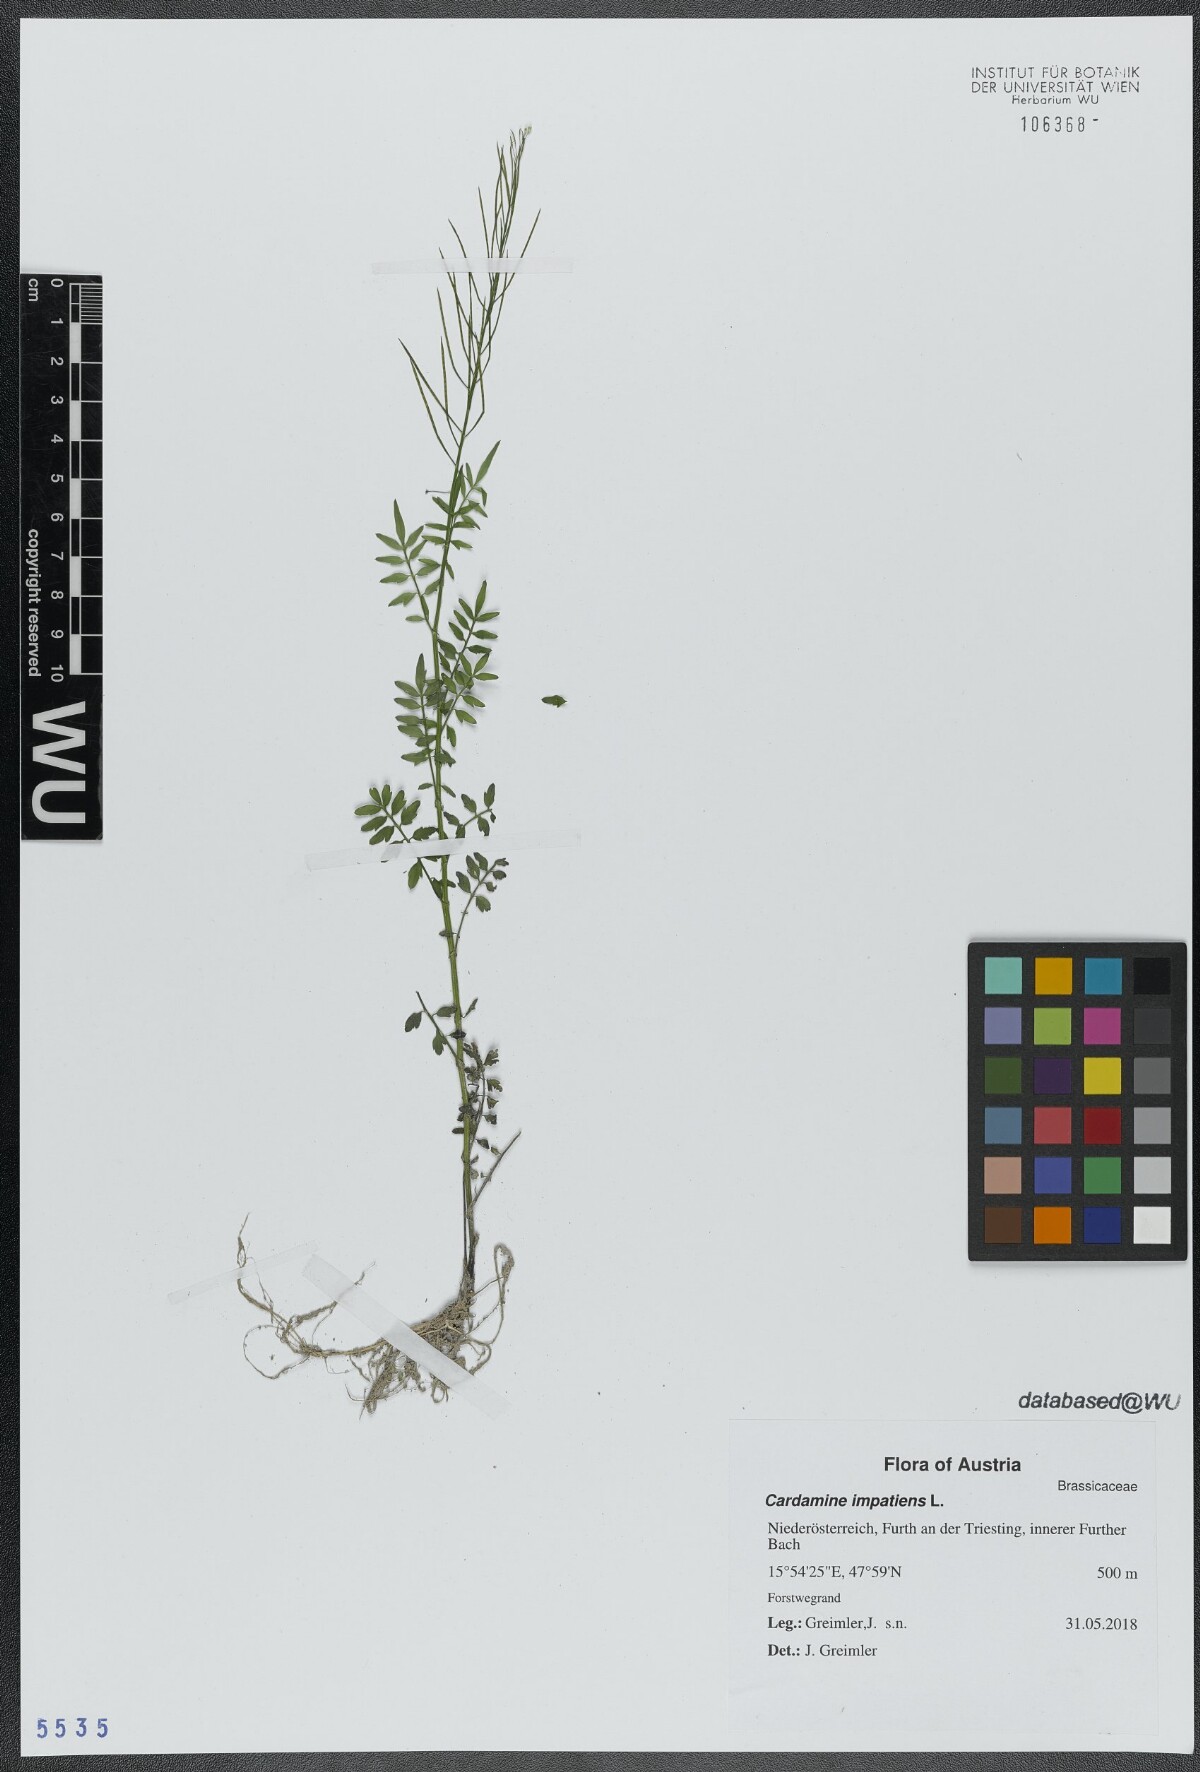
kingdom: Plantae
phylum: Tracheophyta
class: Magnoliopsida
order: Brassicales
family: Brassicaceae
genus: Cardamine
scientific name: Cardamine impatiens
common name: Narrow-leaved bitter-cress
